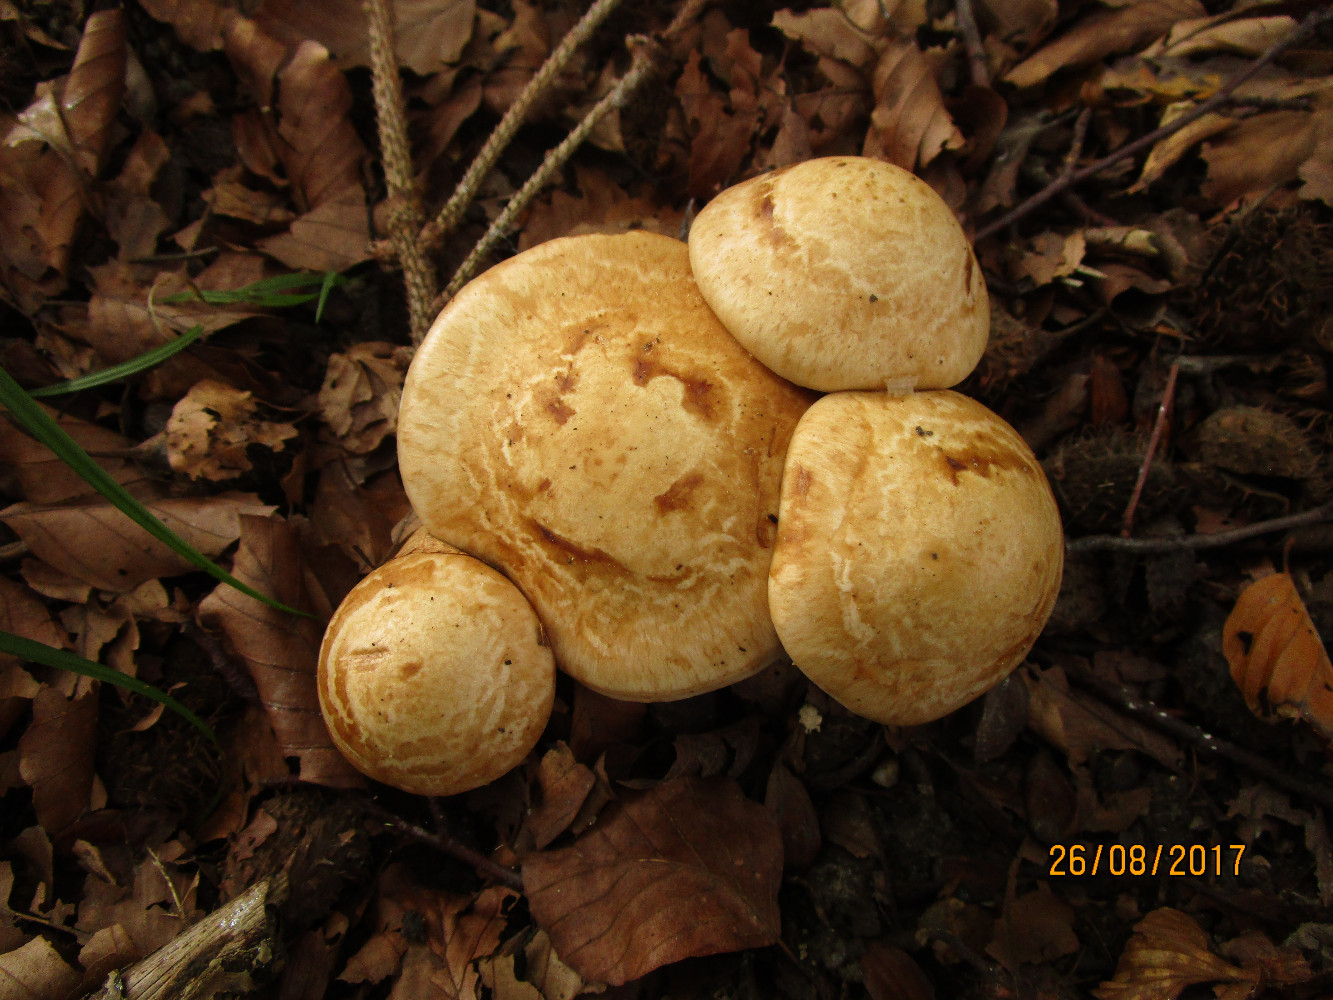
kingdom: Fungi
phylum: Basidiomycota
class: Agaricomycetes
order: Agaricales
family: Hymenogastraceae
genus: Hebeloma
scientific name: Hebeloma radicosum
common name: pælerods-tåreblad
